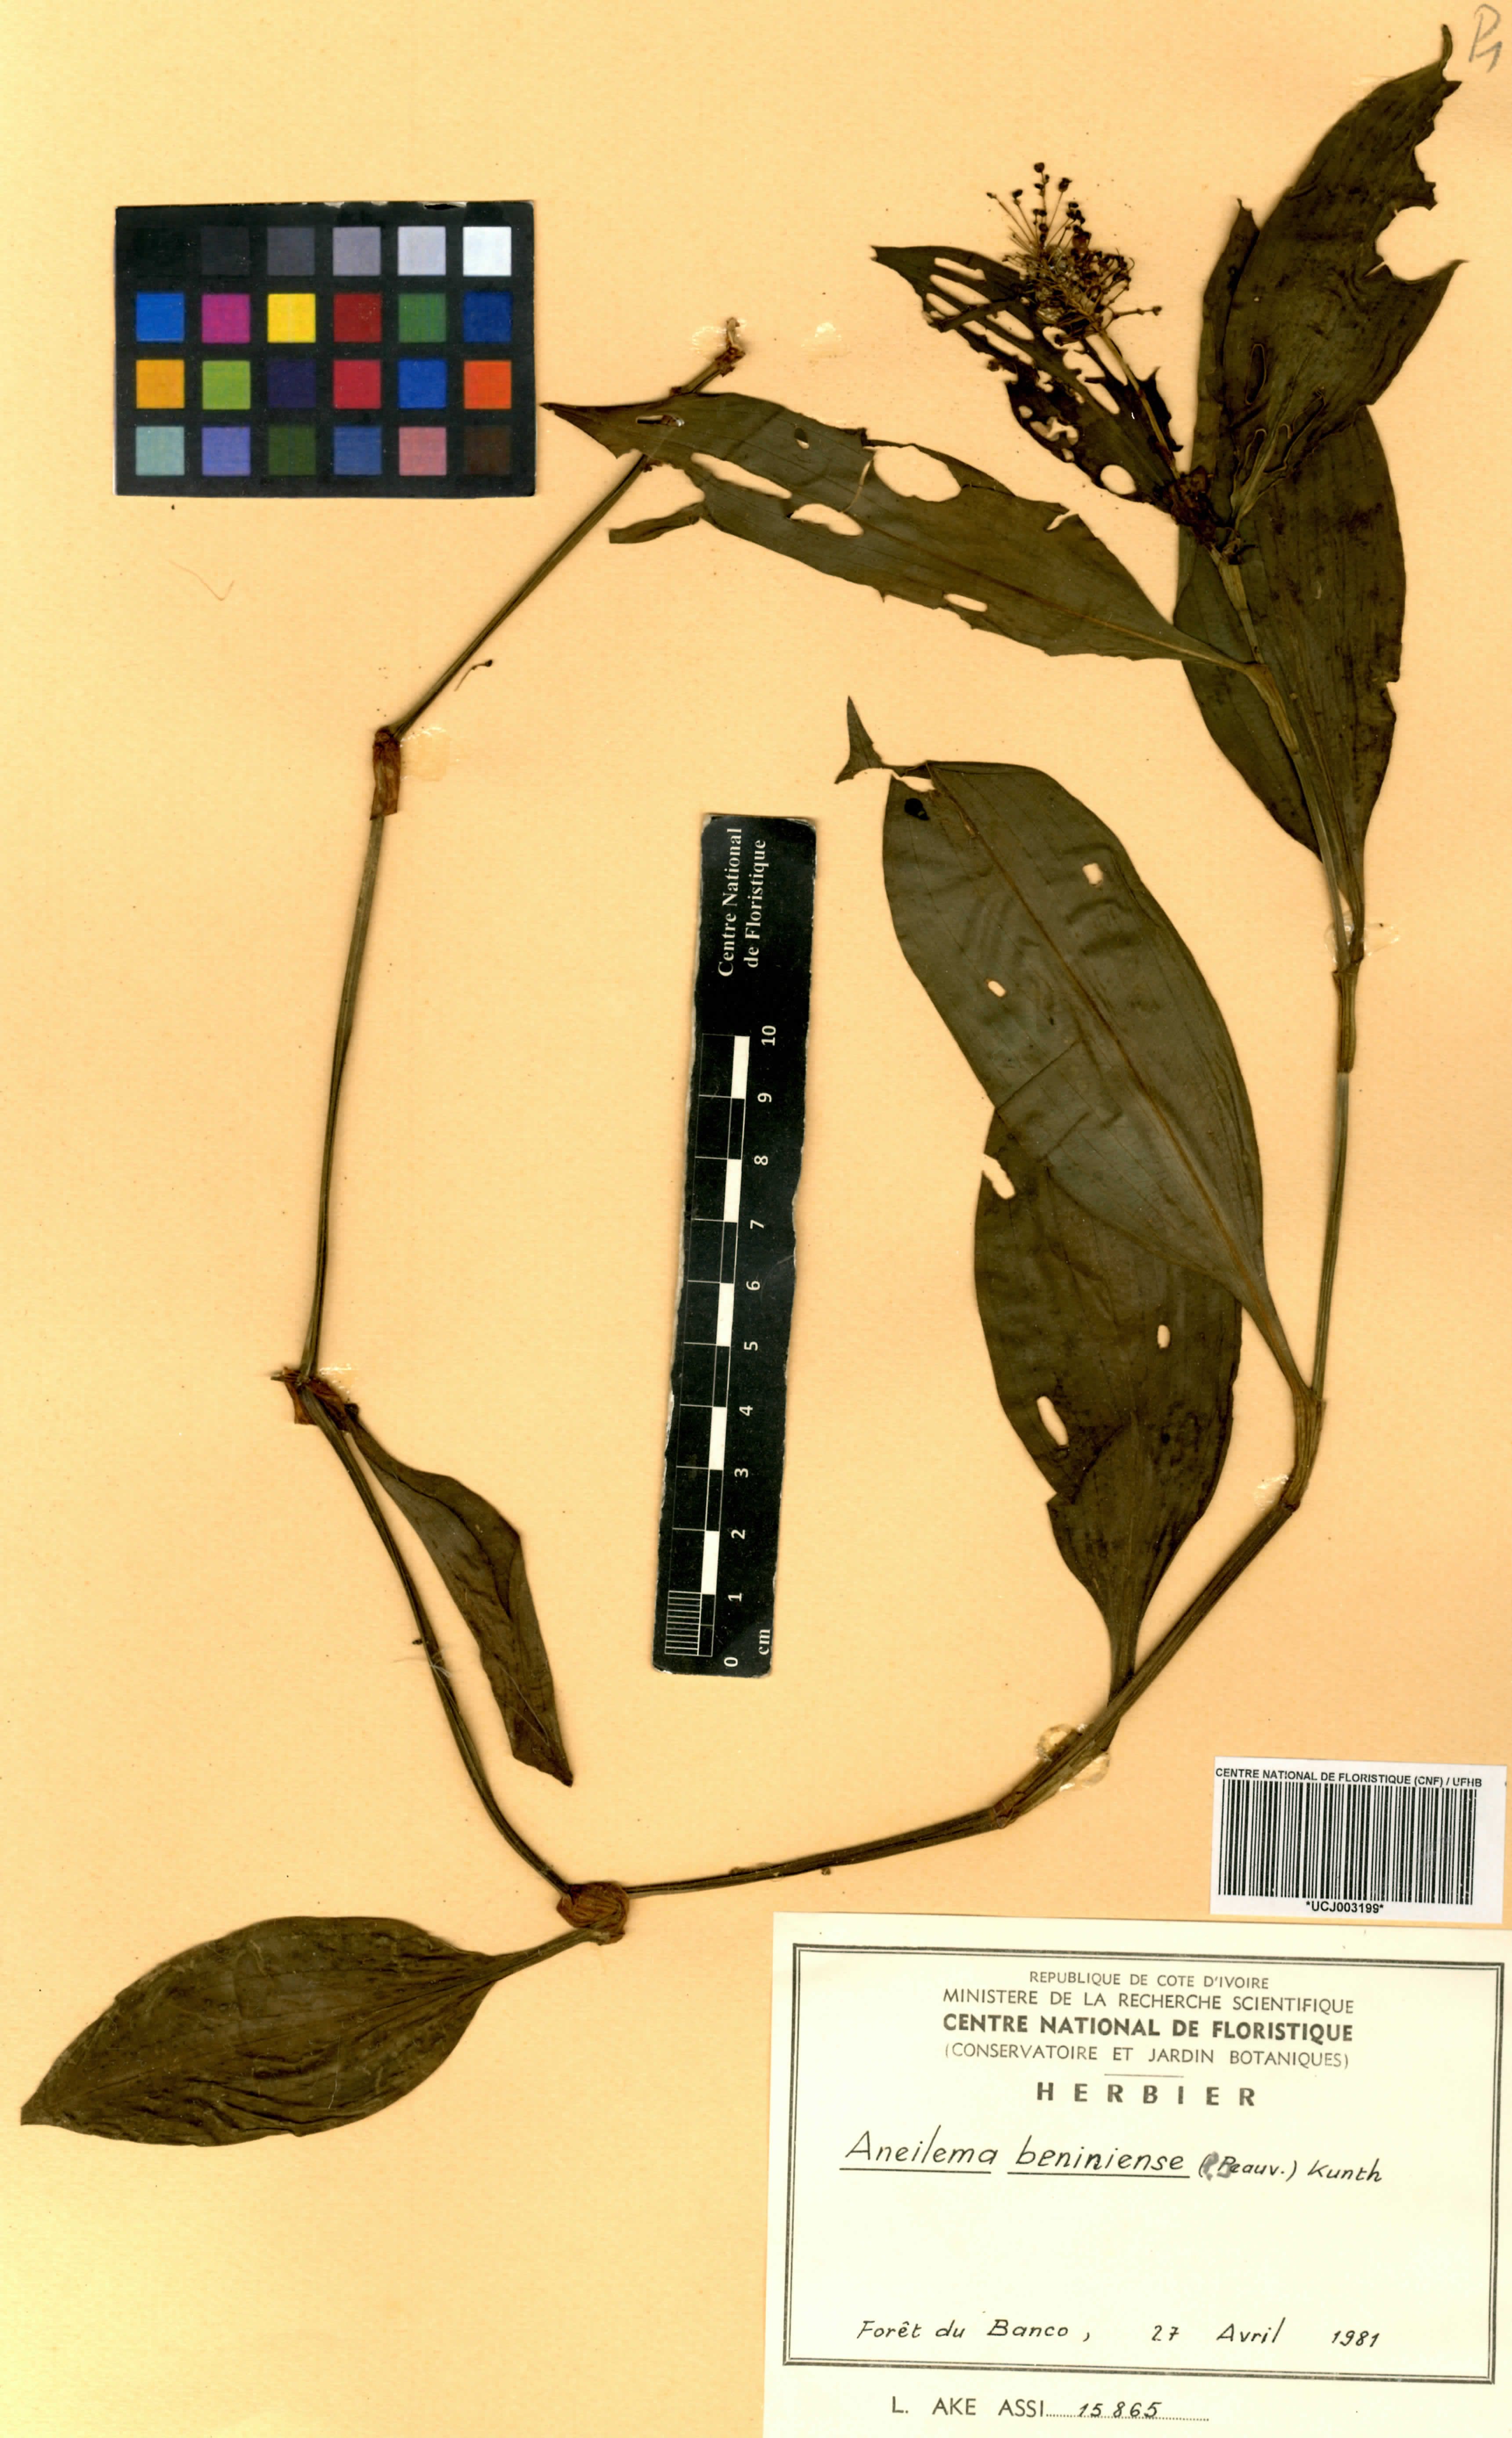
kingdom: Plantae
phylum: Tracheophyta
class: Liliopsida
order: Commelinales
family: Commelinaceae
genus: Aneilema
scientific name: Aneilema beniniense
